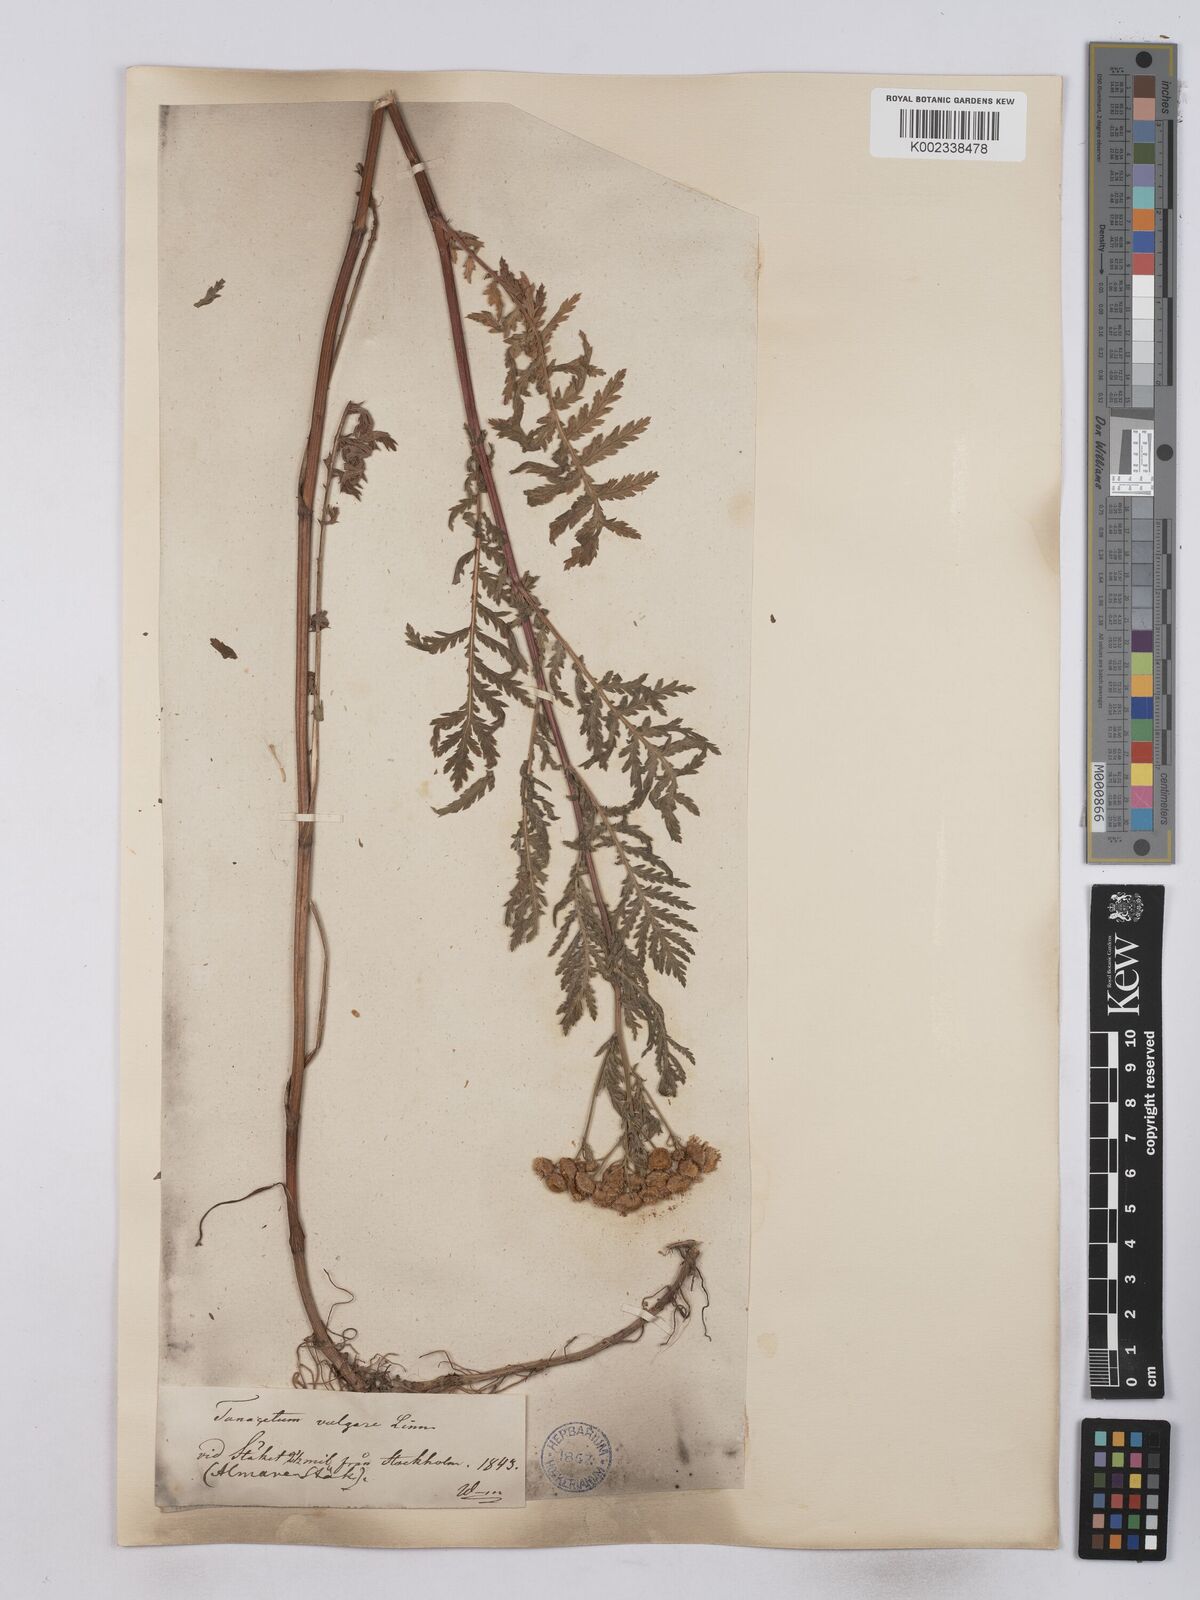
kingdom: Plantae
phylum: Tracheophyta
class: Magnoliopsida
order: Asterales
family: Asteraceae
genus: Tanacetum
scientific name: Tanacetum vulgare
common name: Common tansy
